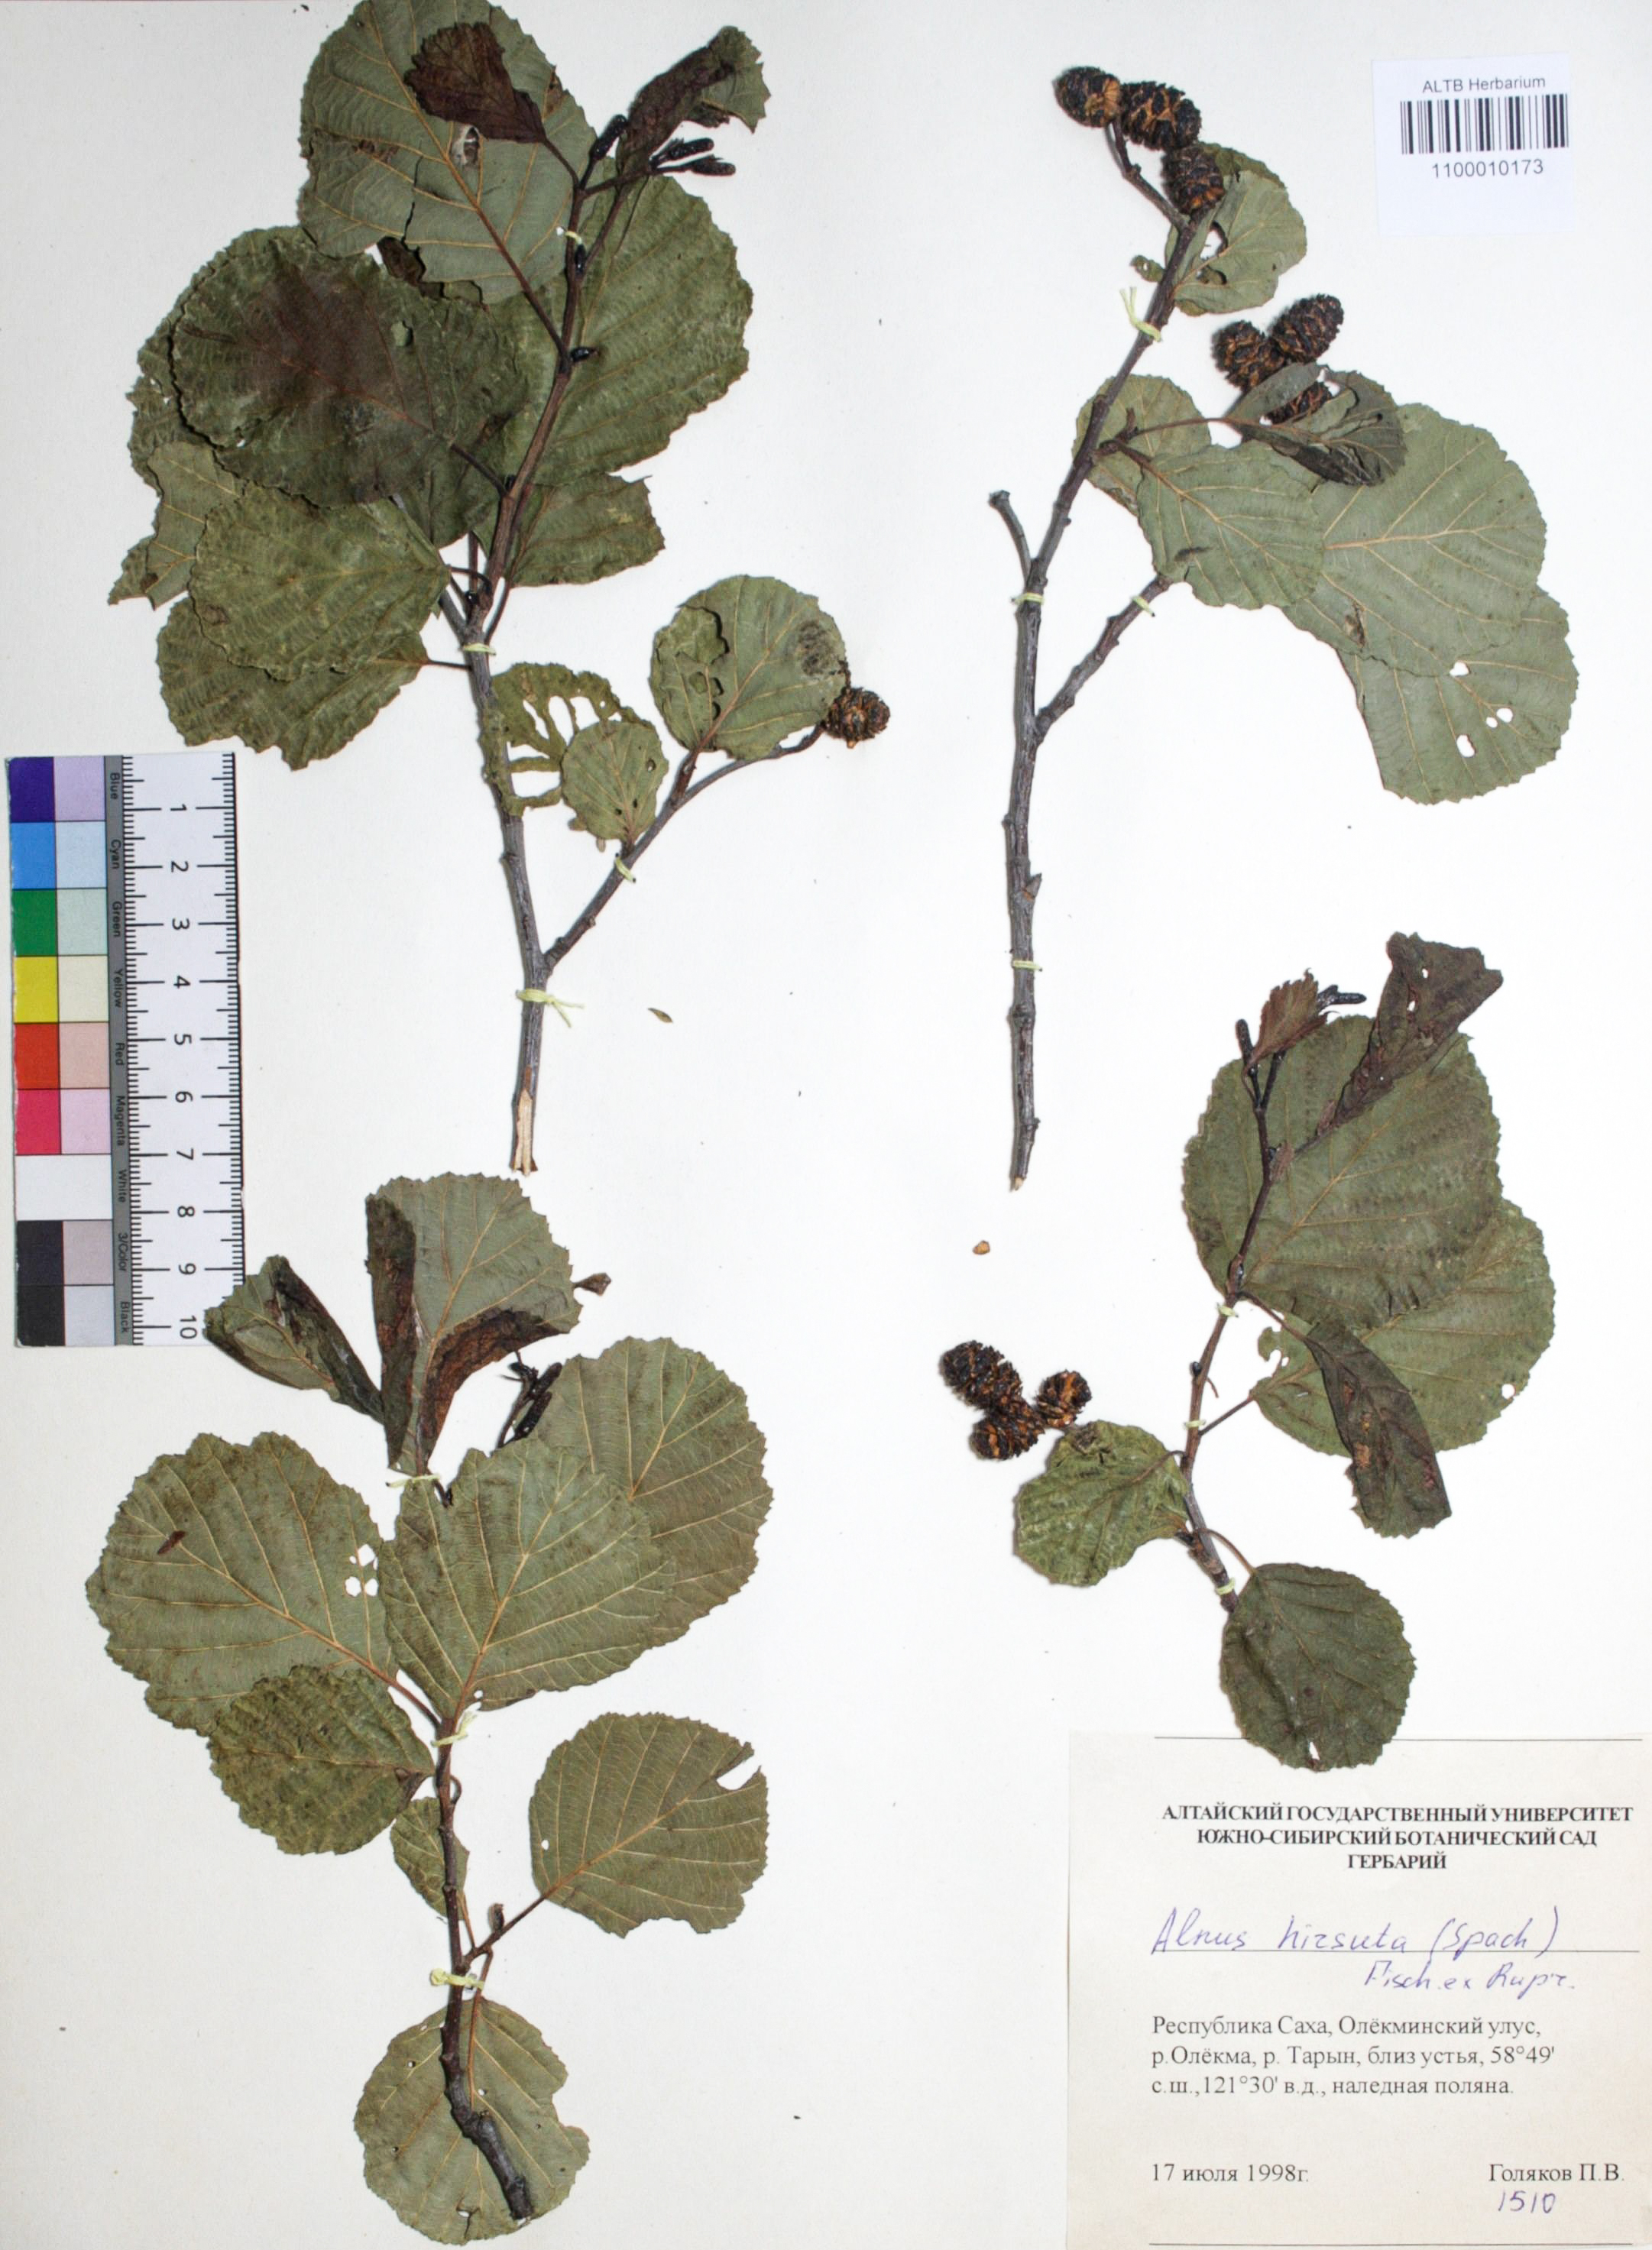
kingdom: Plantae
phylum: Tracheophyta
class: Magnoliopsida
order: Fagales
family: Betulaceae
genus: Alnus
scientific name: Alnus hirsuta
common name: Manchurian alder
